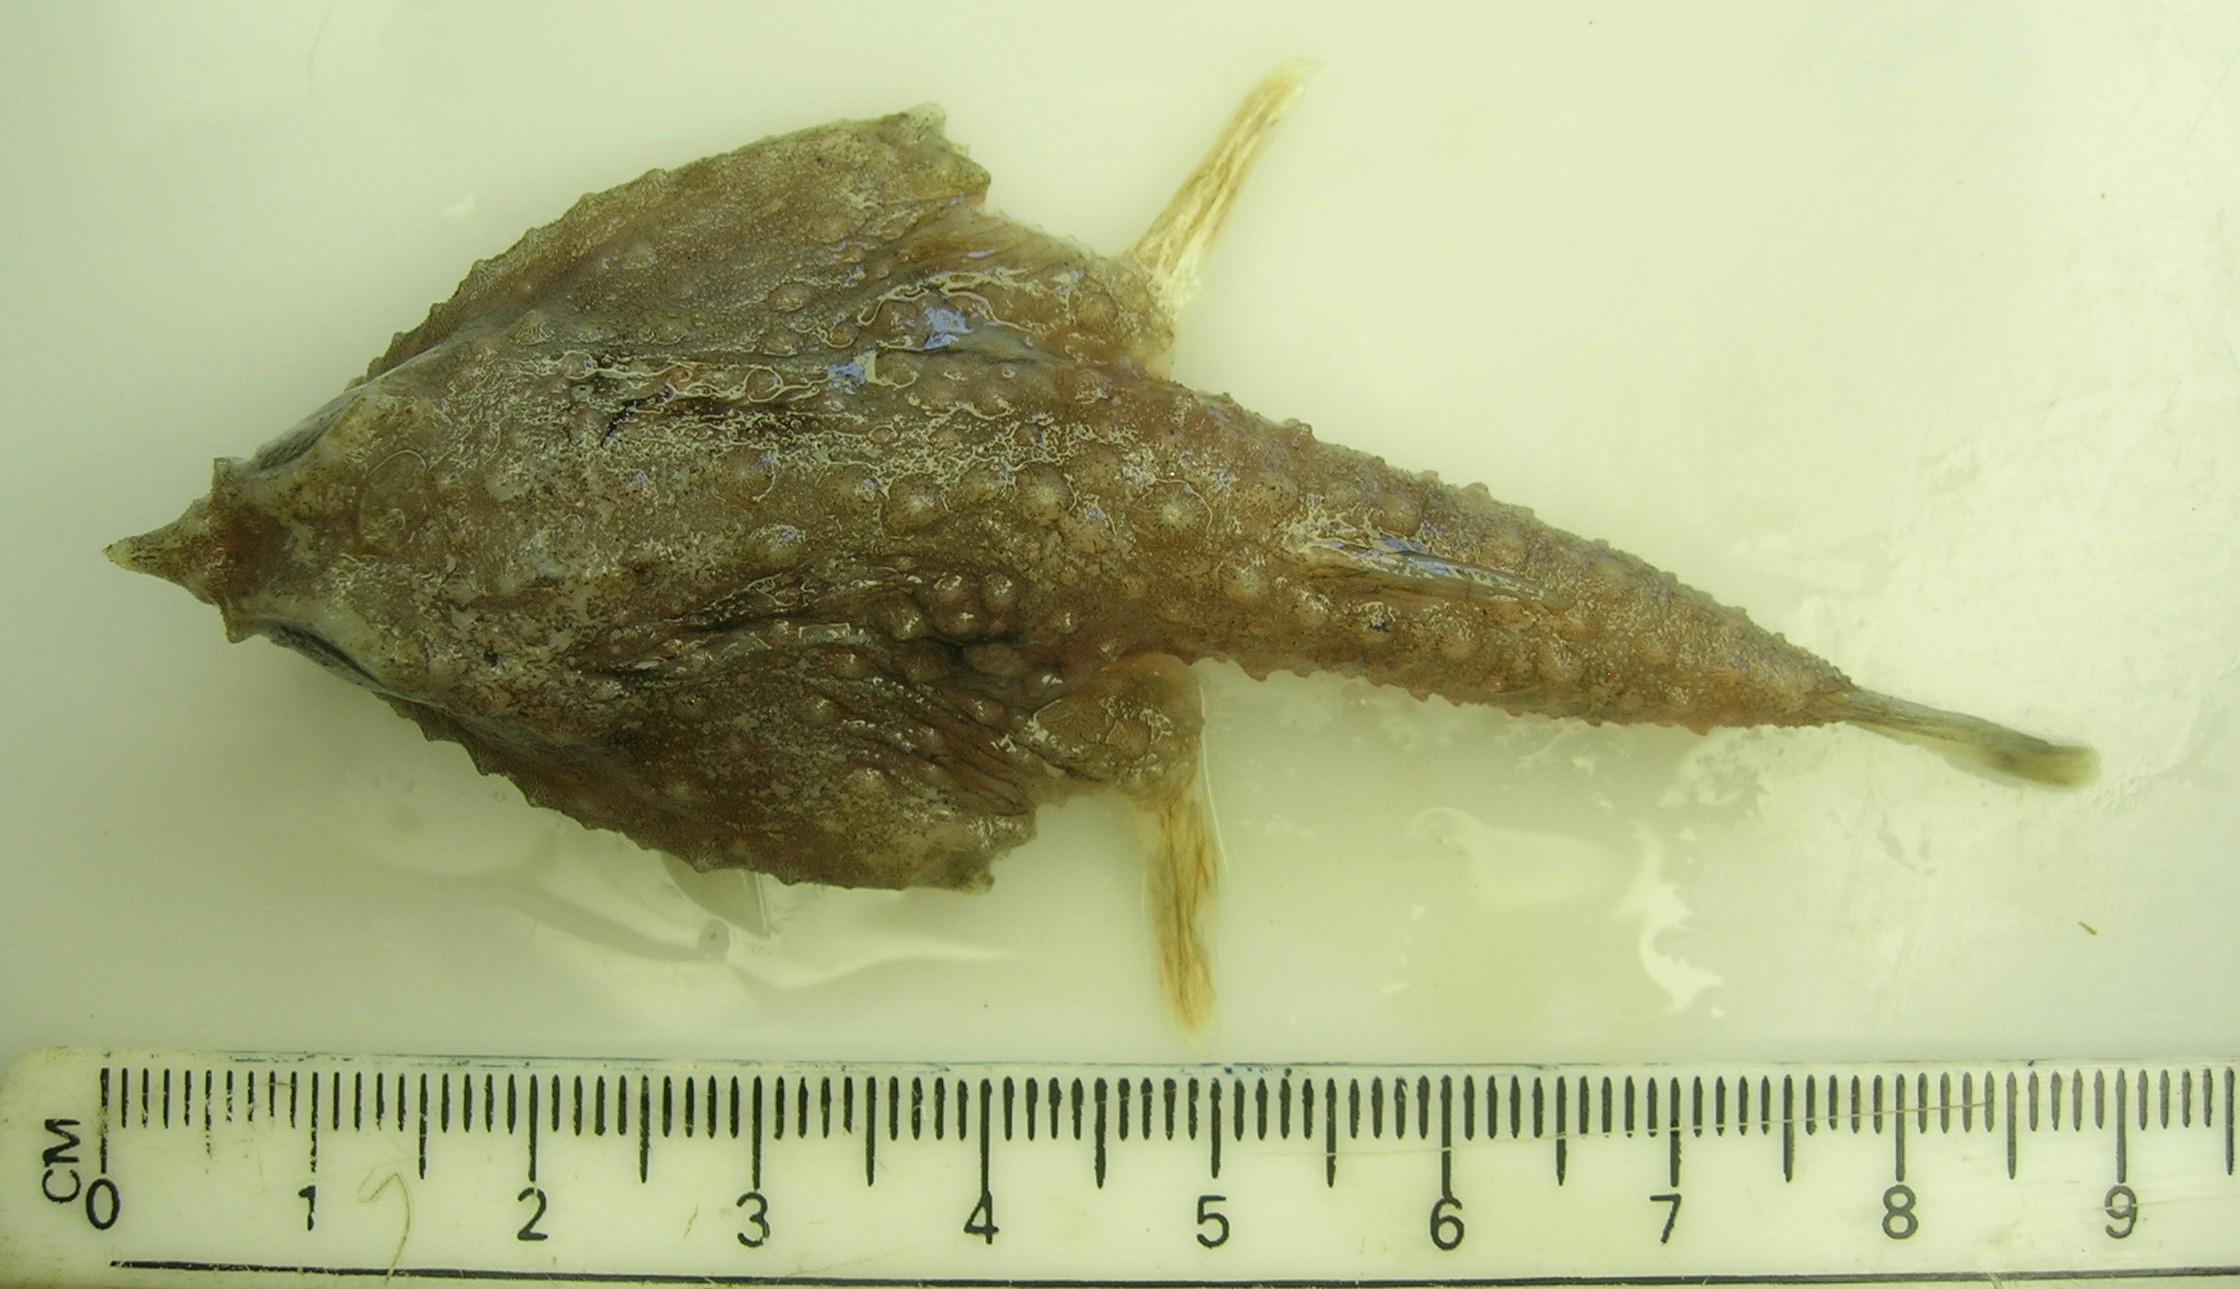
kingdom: Animalia
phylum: Chordata
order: Lophiiformes
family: Ogcocephalidae
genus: Malthopsis
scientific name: Malthopsis austrafricana
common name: South african triangular batfish
